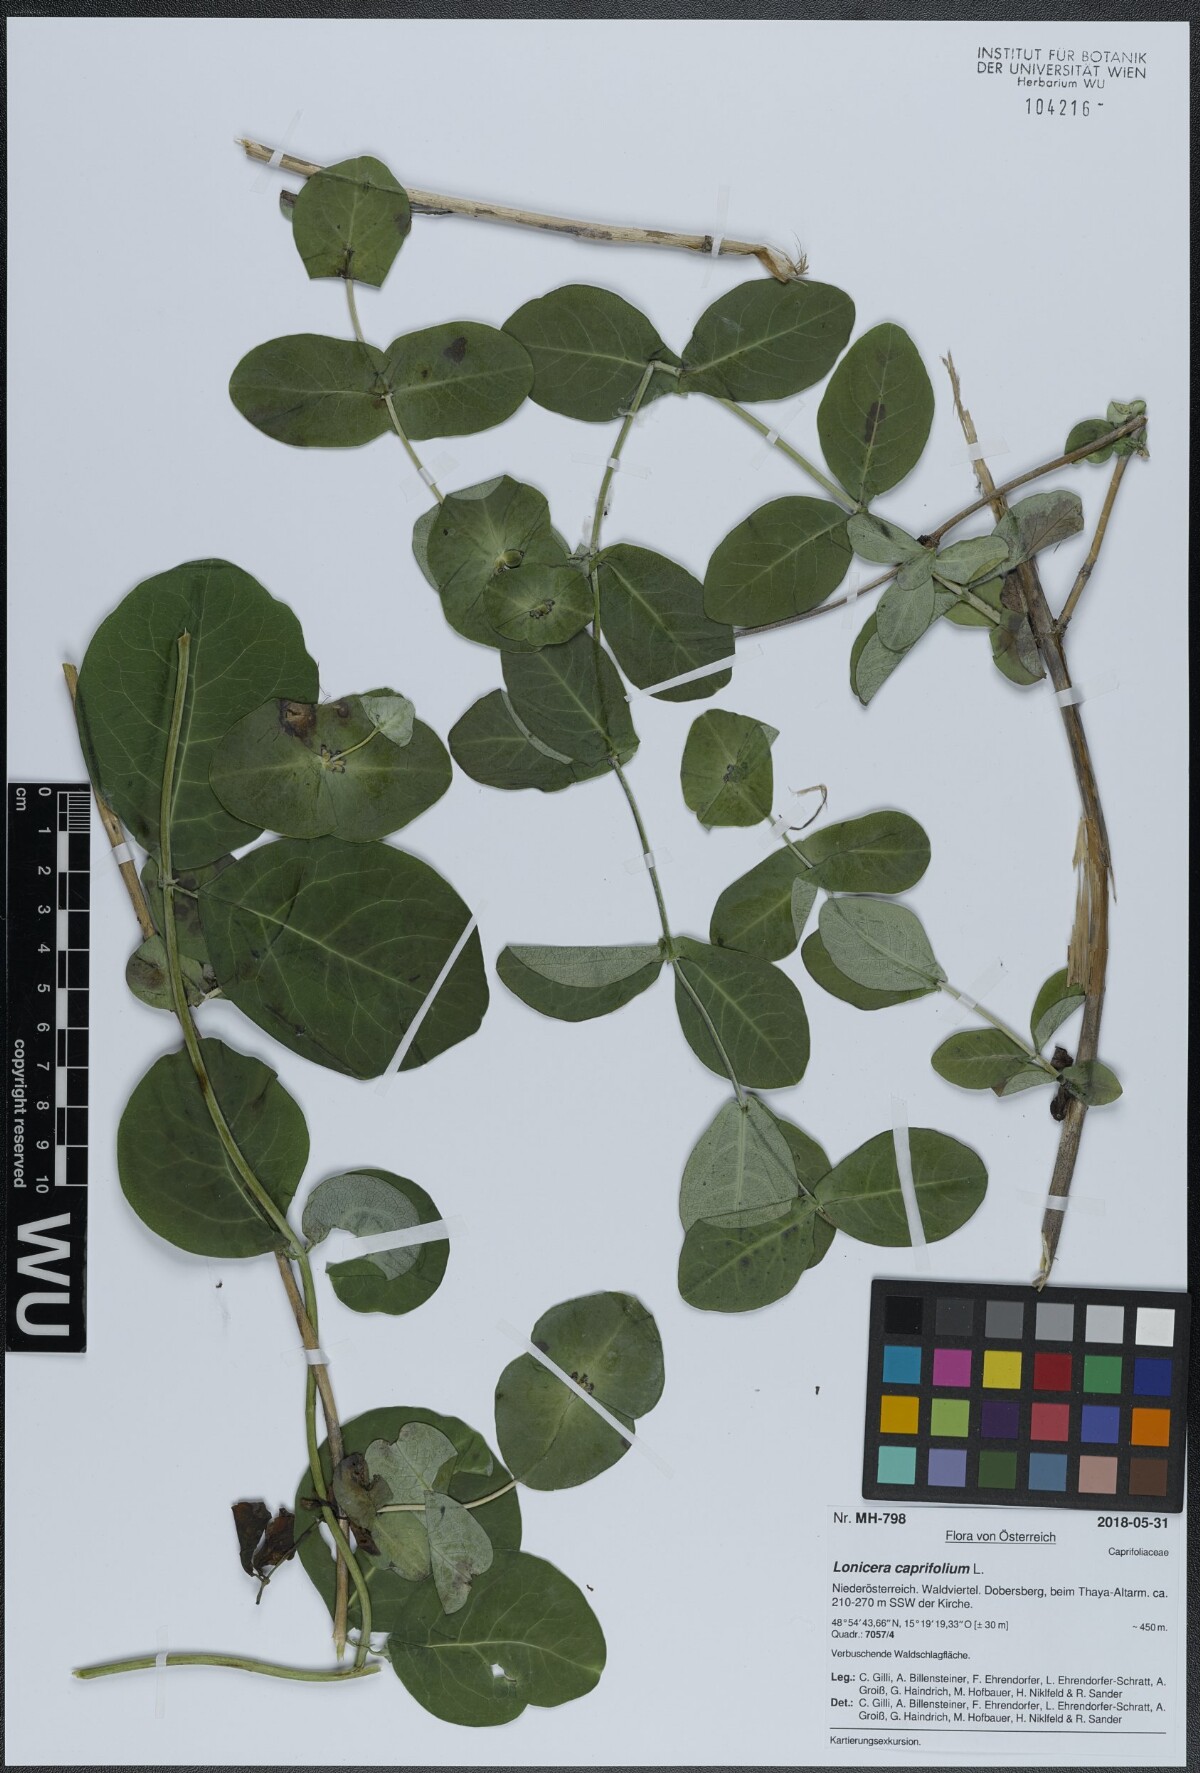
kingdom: Plantae
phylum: Tracheophyta
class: Magnoliopsida
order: Dipsacales
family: Caprifoliaceae
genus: Lonicera
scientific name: Lonicera caprifolium
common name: Perfoliate honeysuckle
